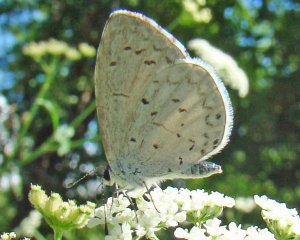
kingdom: Animalia
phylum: Arthropoda
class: Insecta
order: Lepidoptera
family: Lycaenidae
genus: Cyaniris
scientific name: Cyaniris neglecta
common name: Summer Azure
